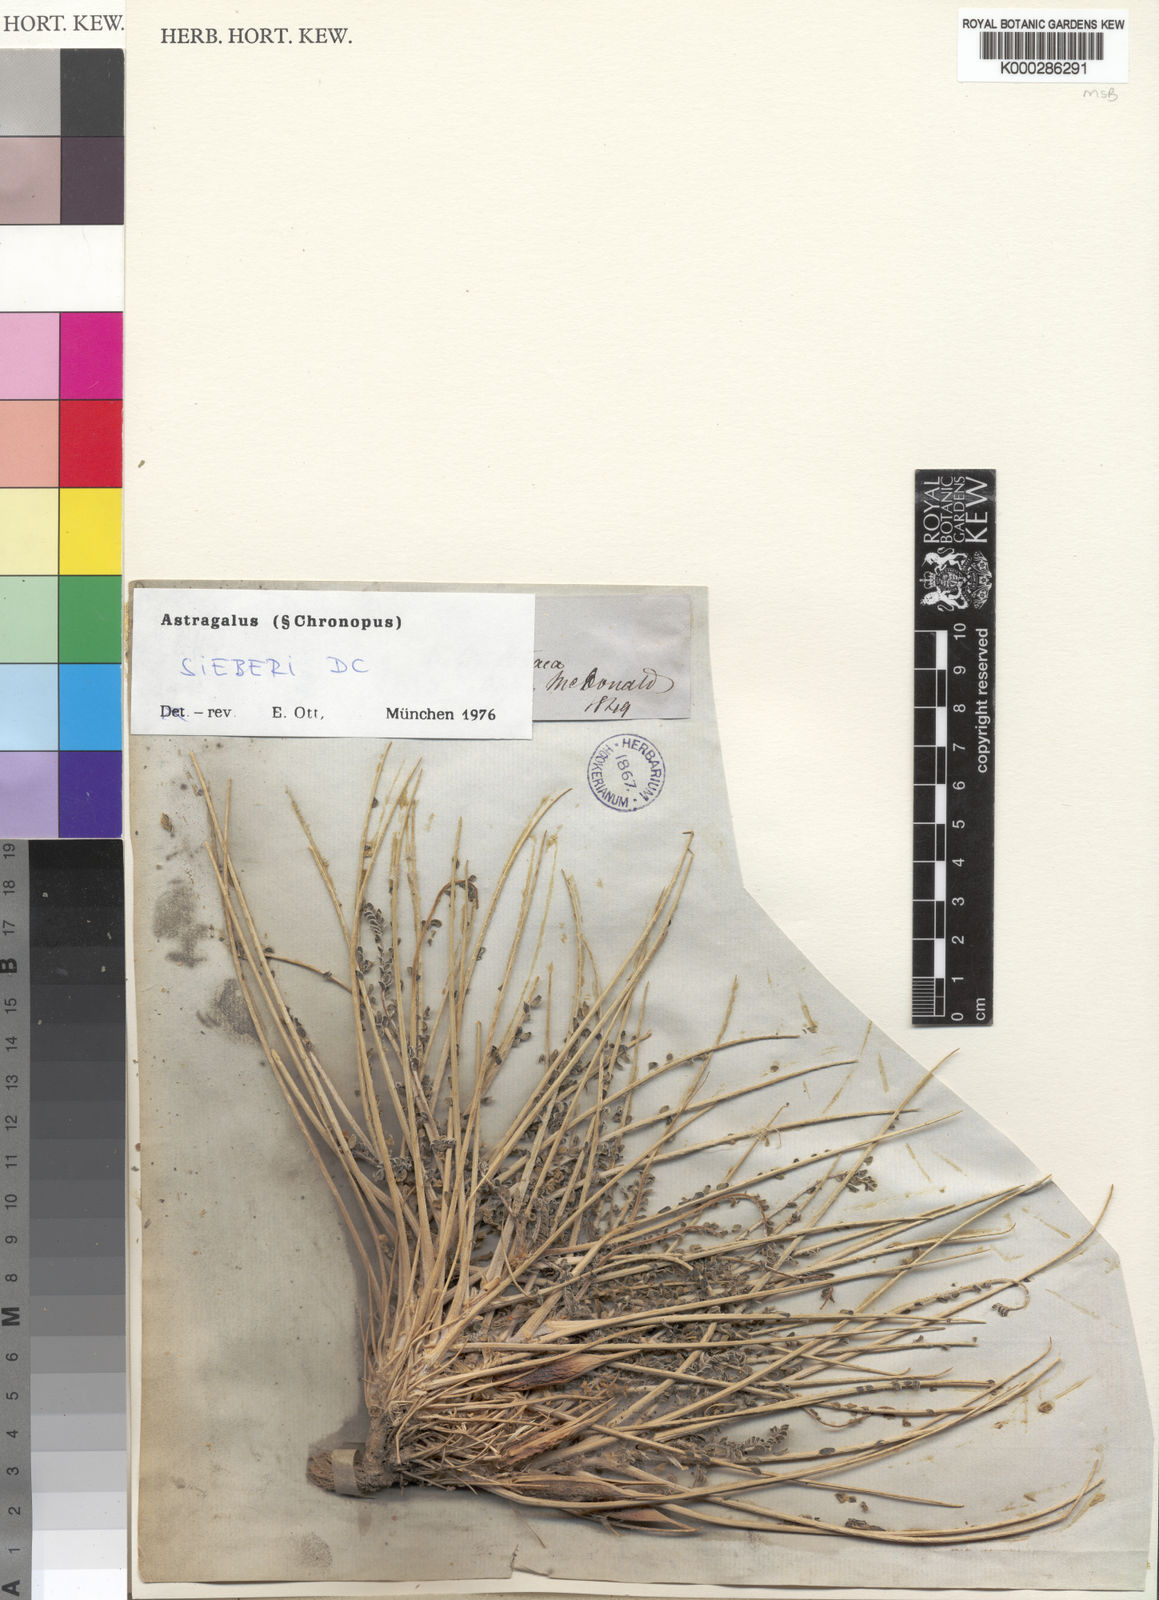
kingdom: Plantae
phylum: Tracheophyta
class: Magnoliopsida
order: Fabales
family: Fabaceae
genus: Astragalus
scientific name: Astragalus sieberi
